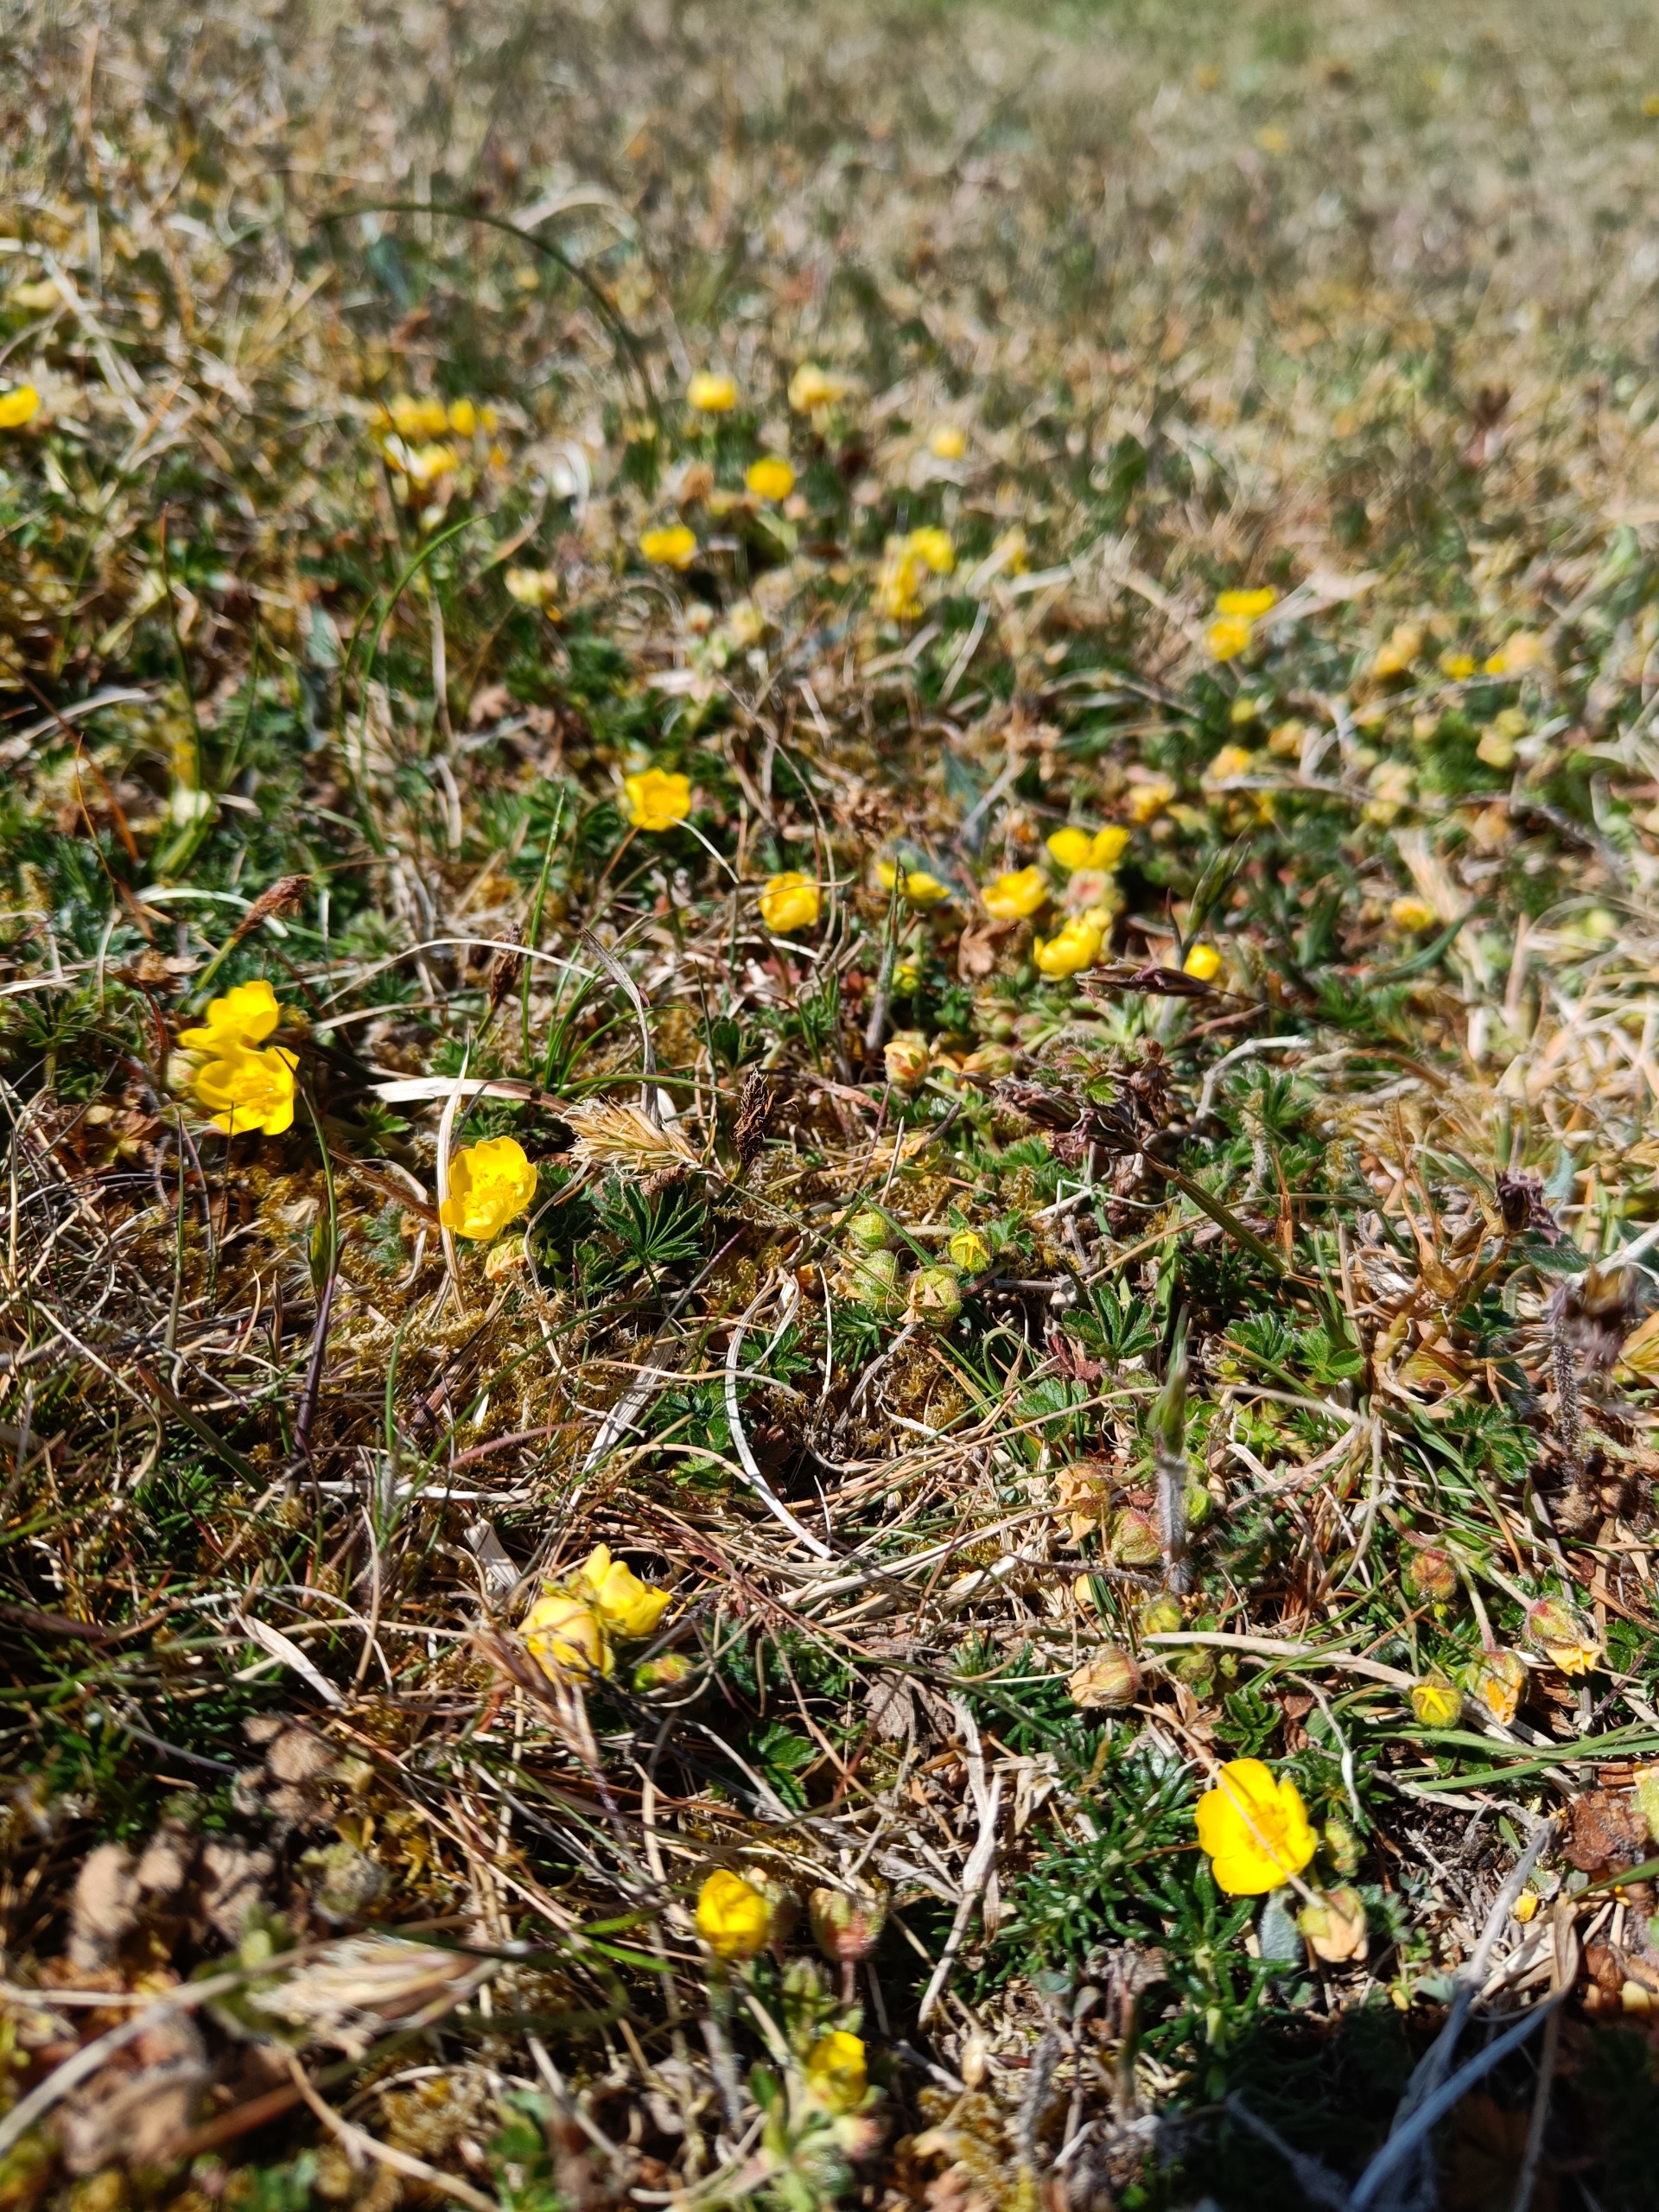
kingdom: Plantae
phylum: Tracheophyta
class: Magnoliopsida
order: Rosales
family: Rosaceae
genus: Potentilla
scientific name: Potentilla verna
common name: Vår-potentil
